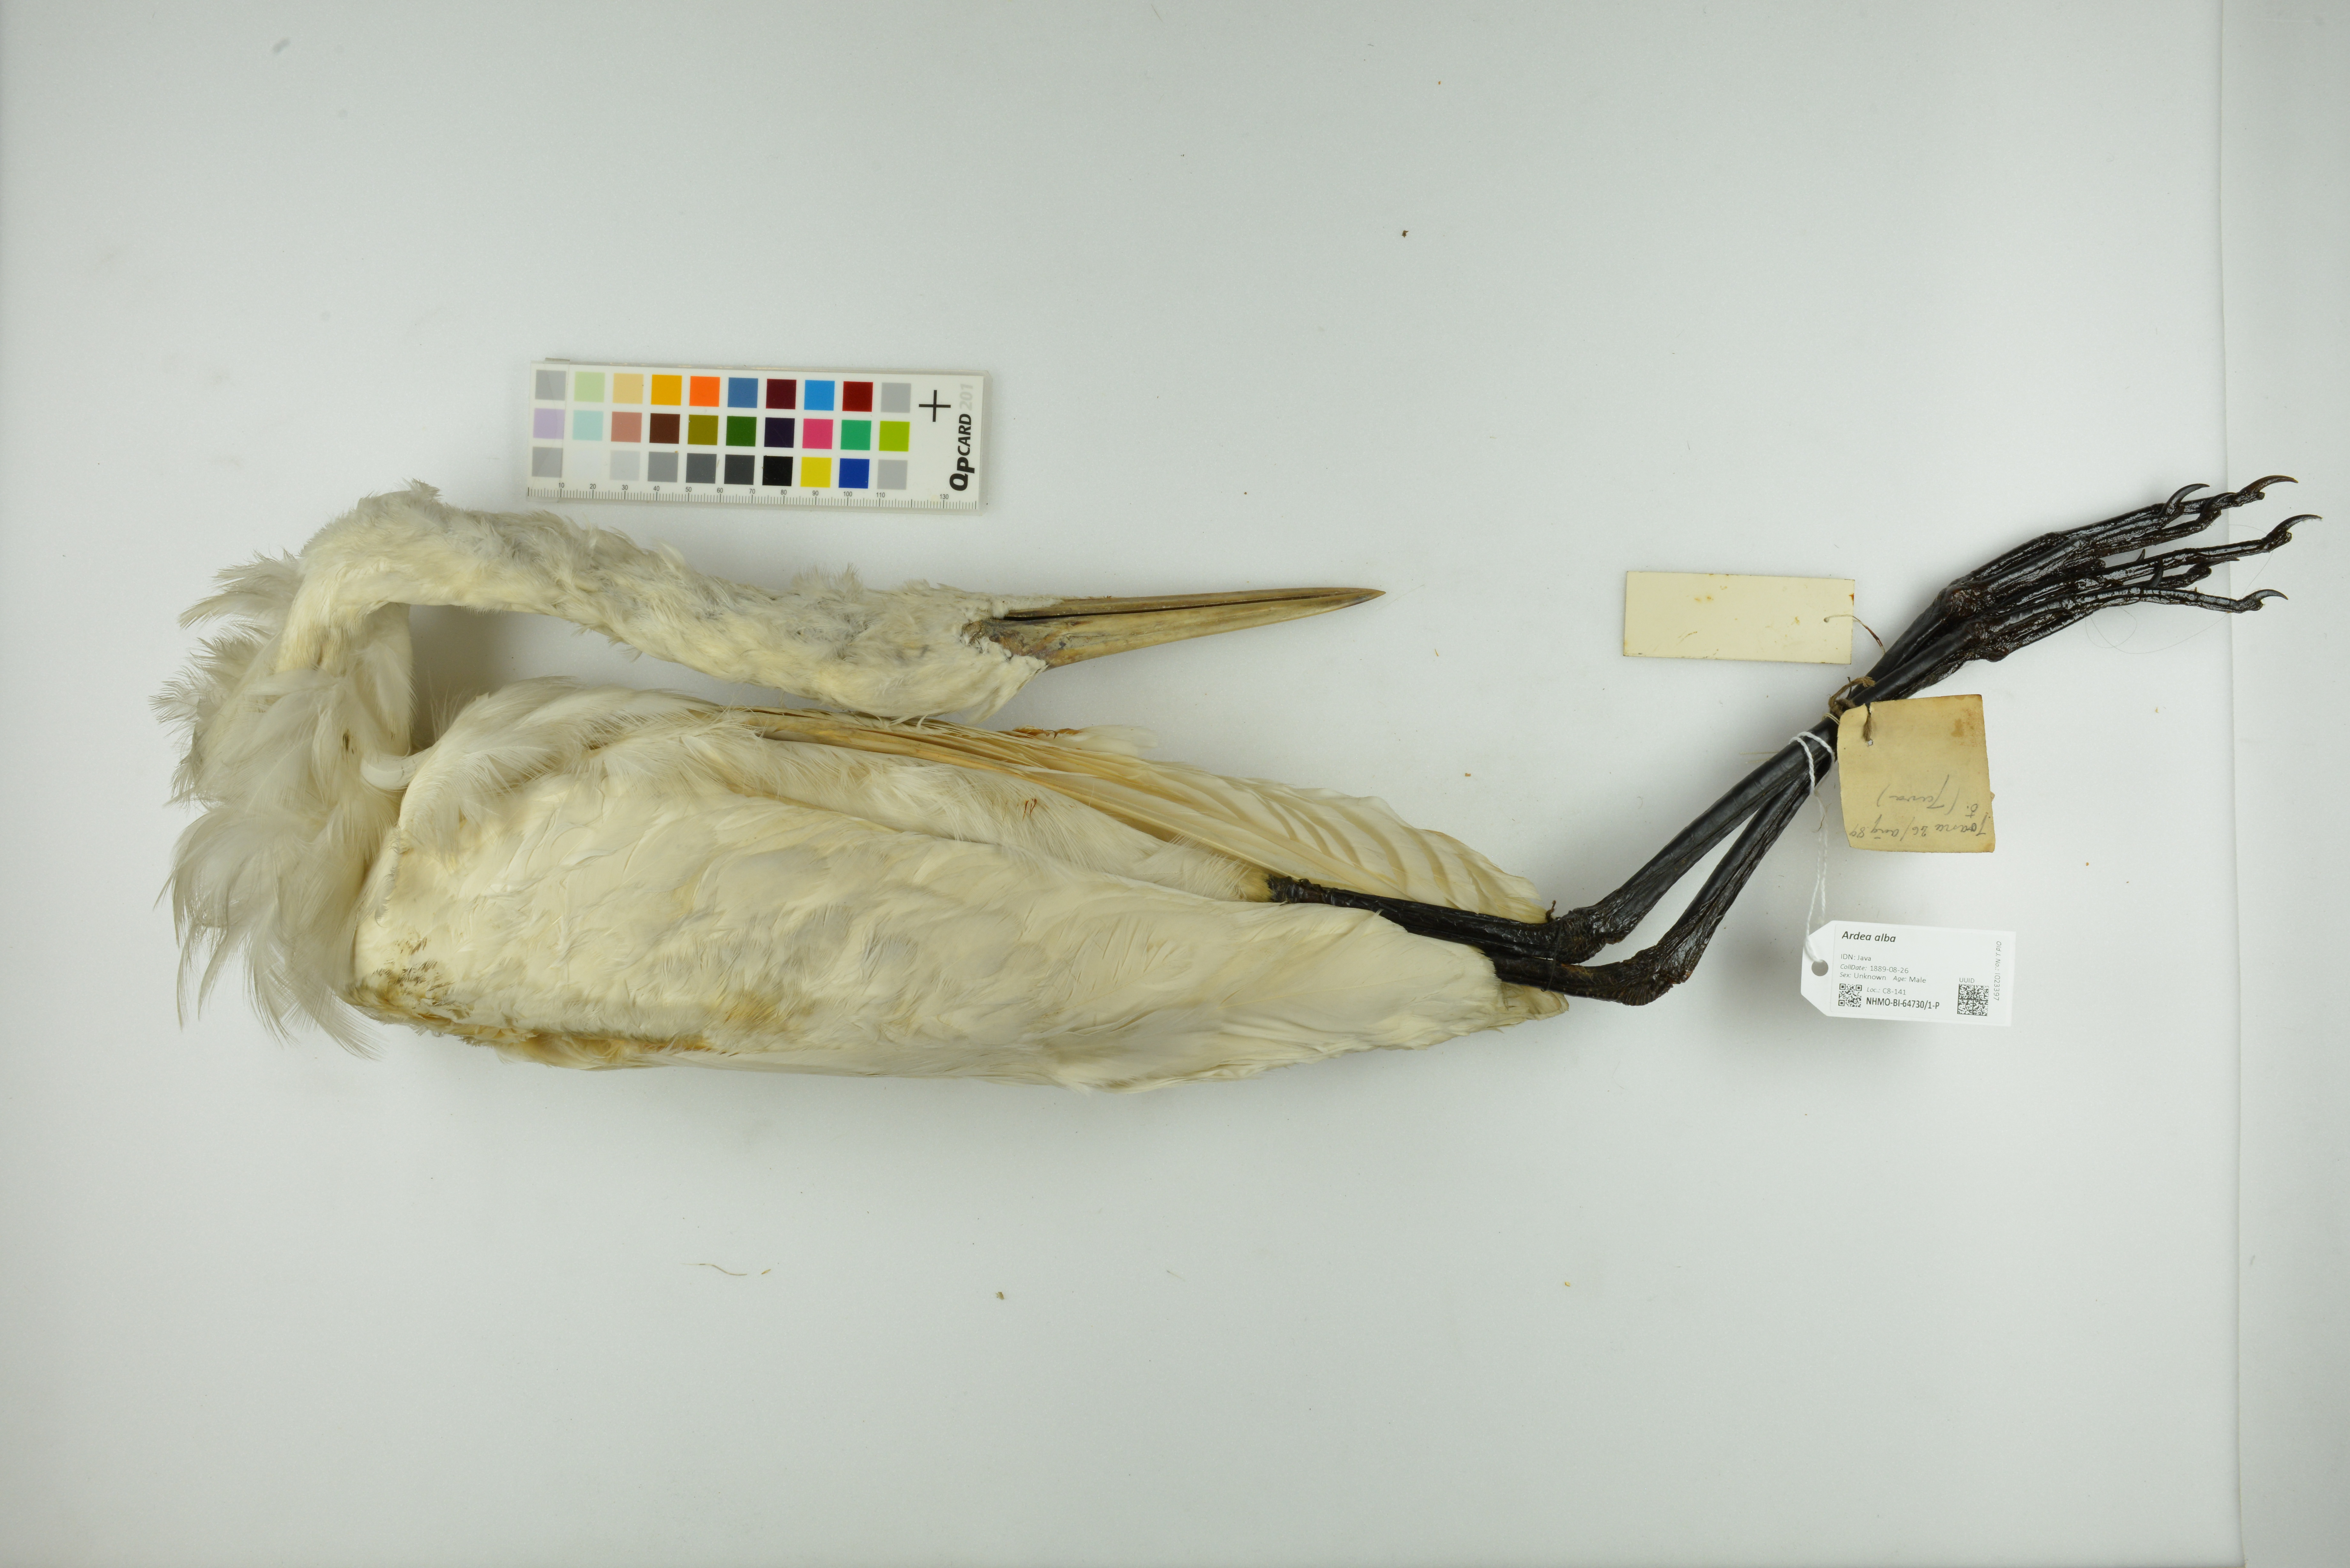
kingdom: Animalia
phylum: Chordata
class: Aves
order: Pelecaniformes
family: Ardeidae
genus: Ardea
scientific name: Ardea alba
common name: Great egret
